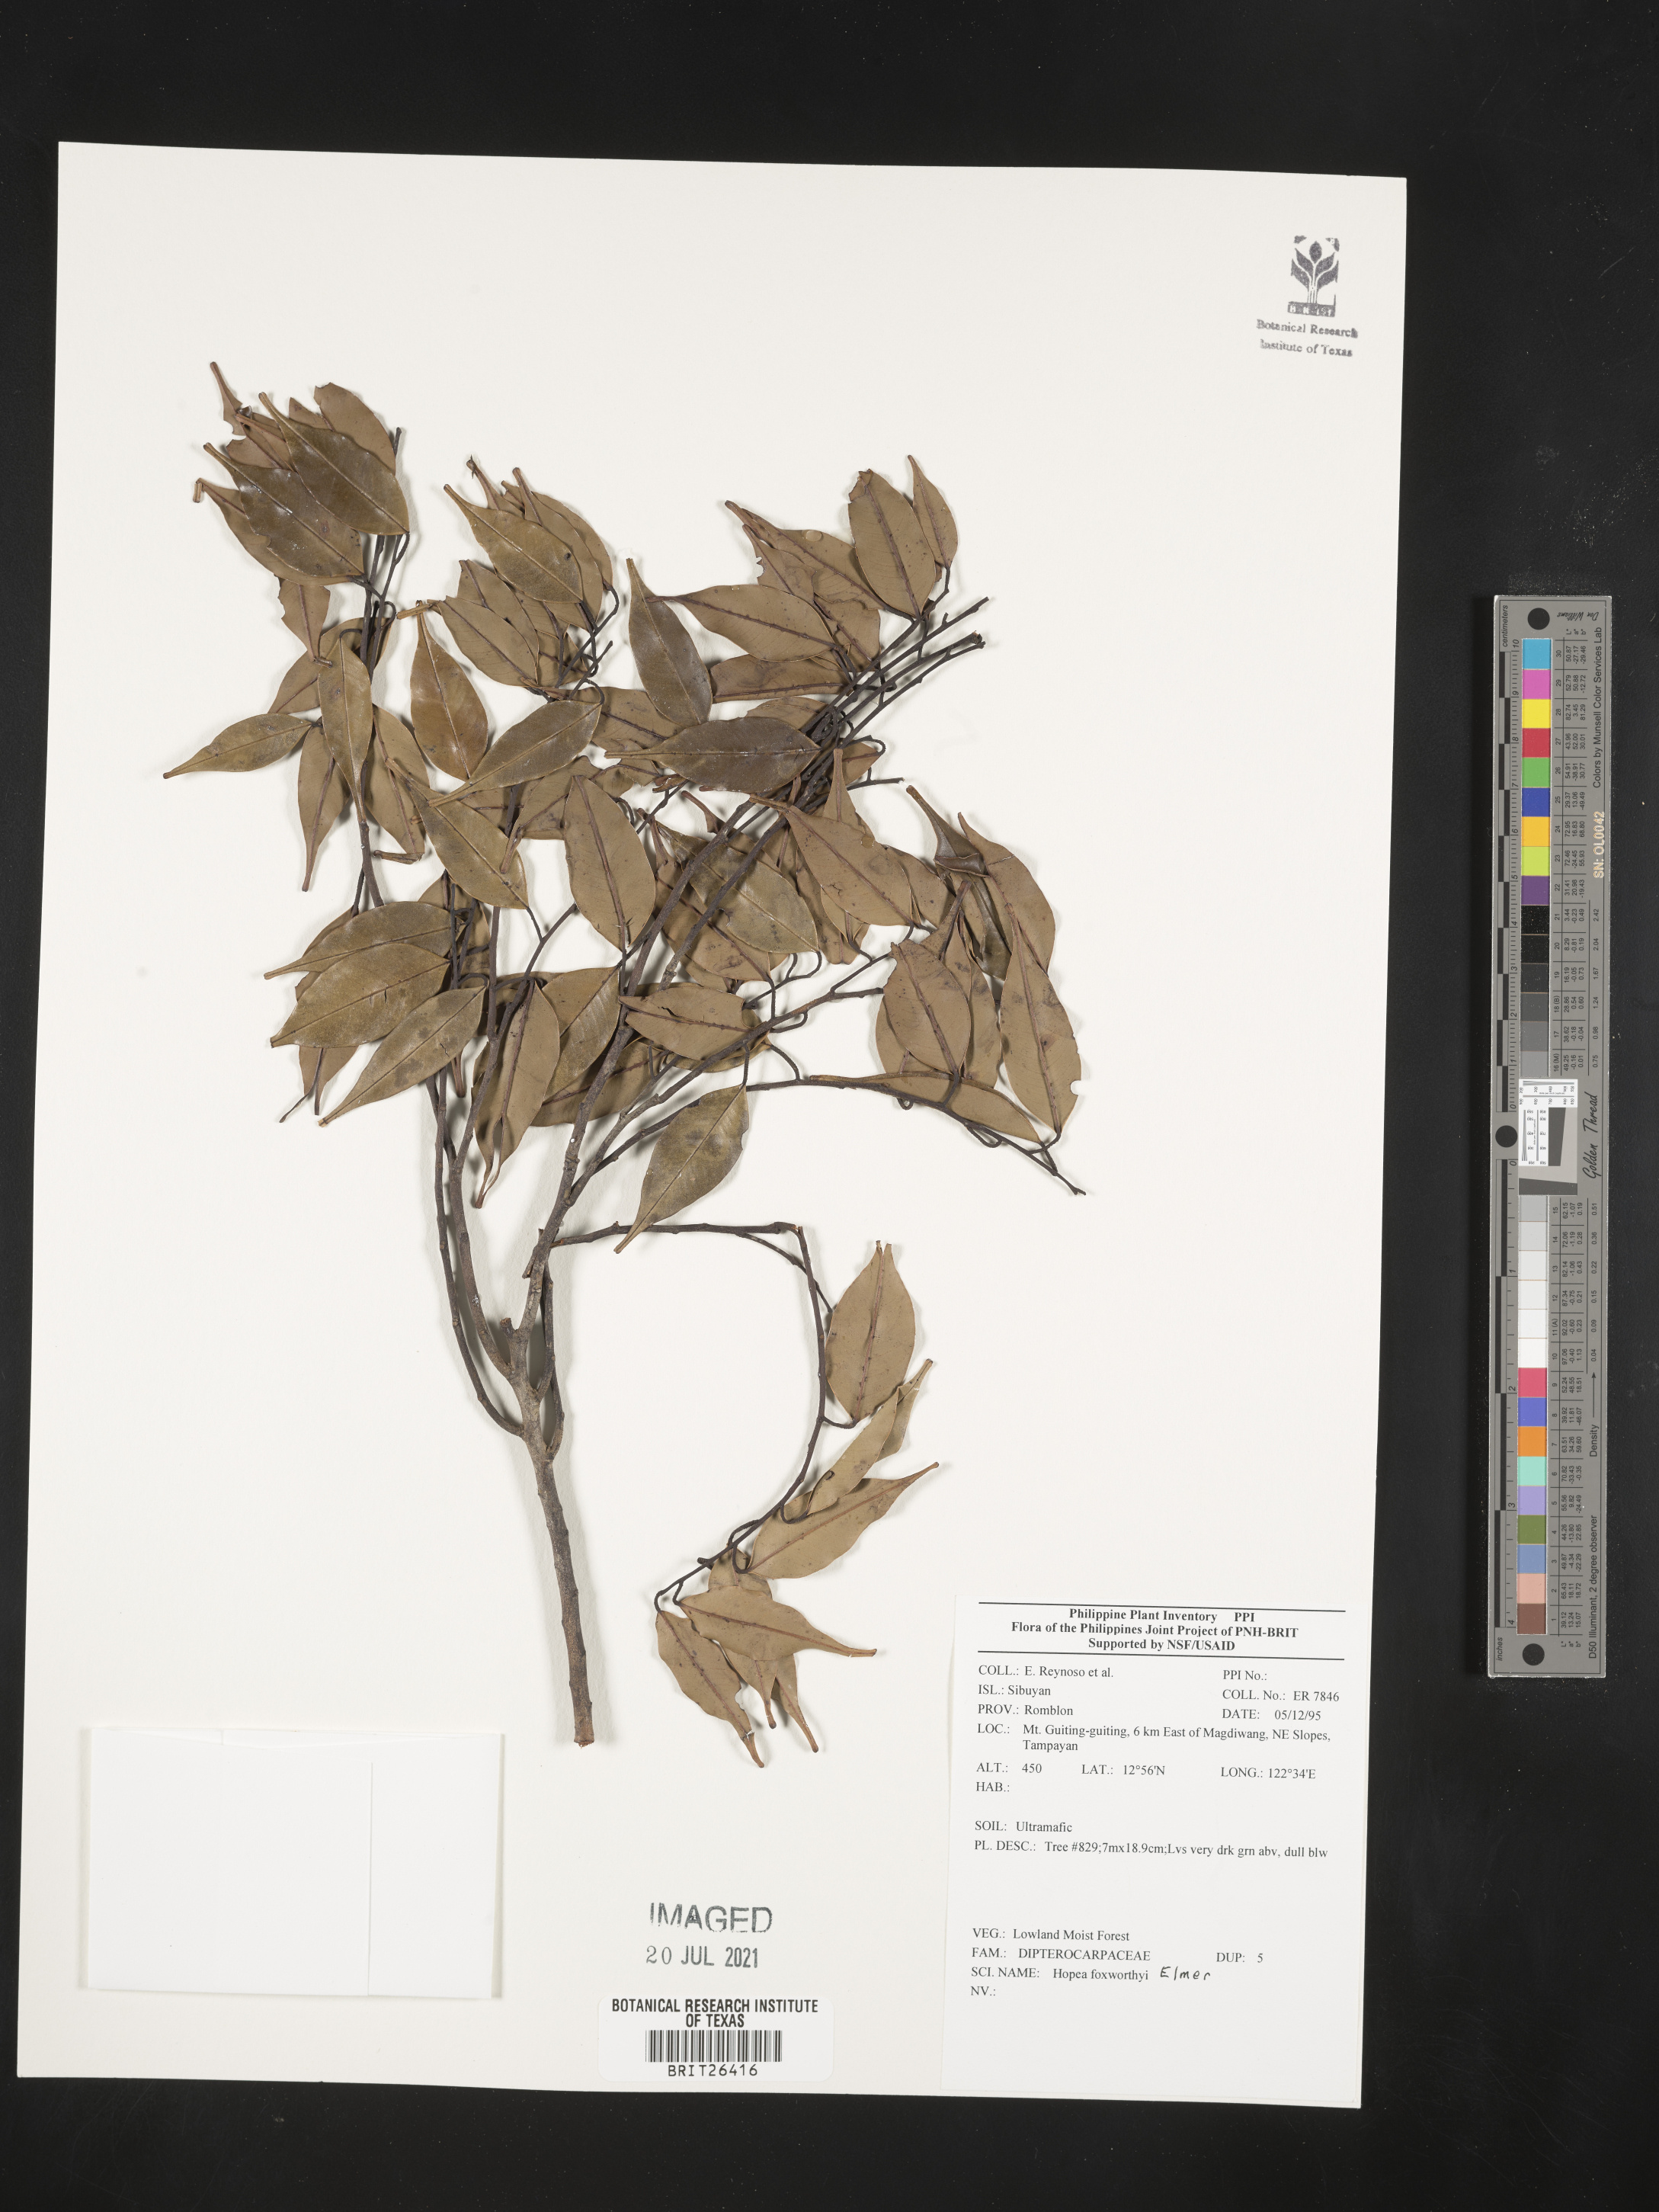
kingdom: Plantae
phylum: Tracheophyta
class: Magnoliopsida
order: Malvales
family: Dipterocarpaceae
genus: Hopea
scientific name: Hopea foxworthyi
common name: Dalingdingan
